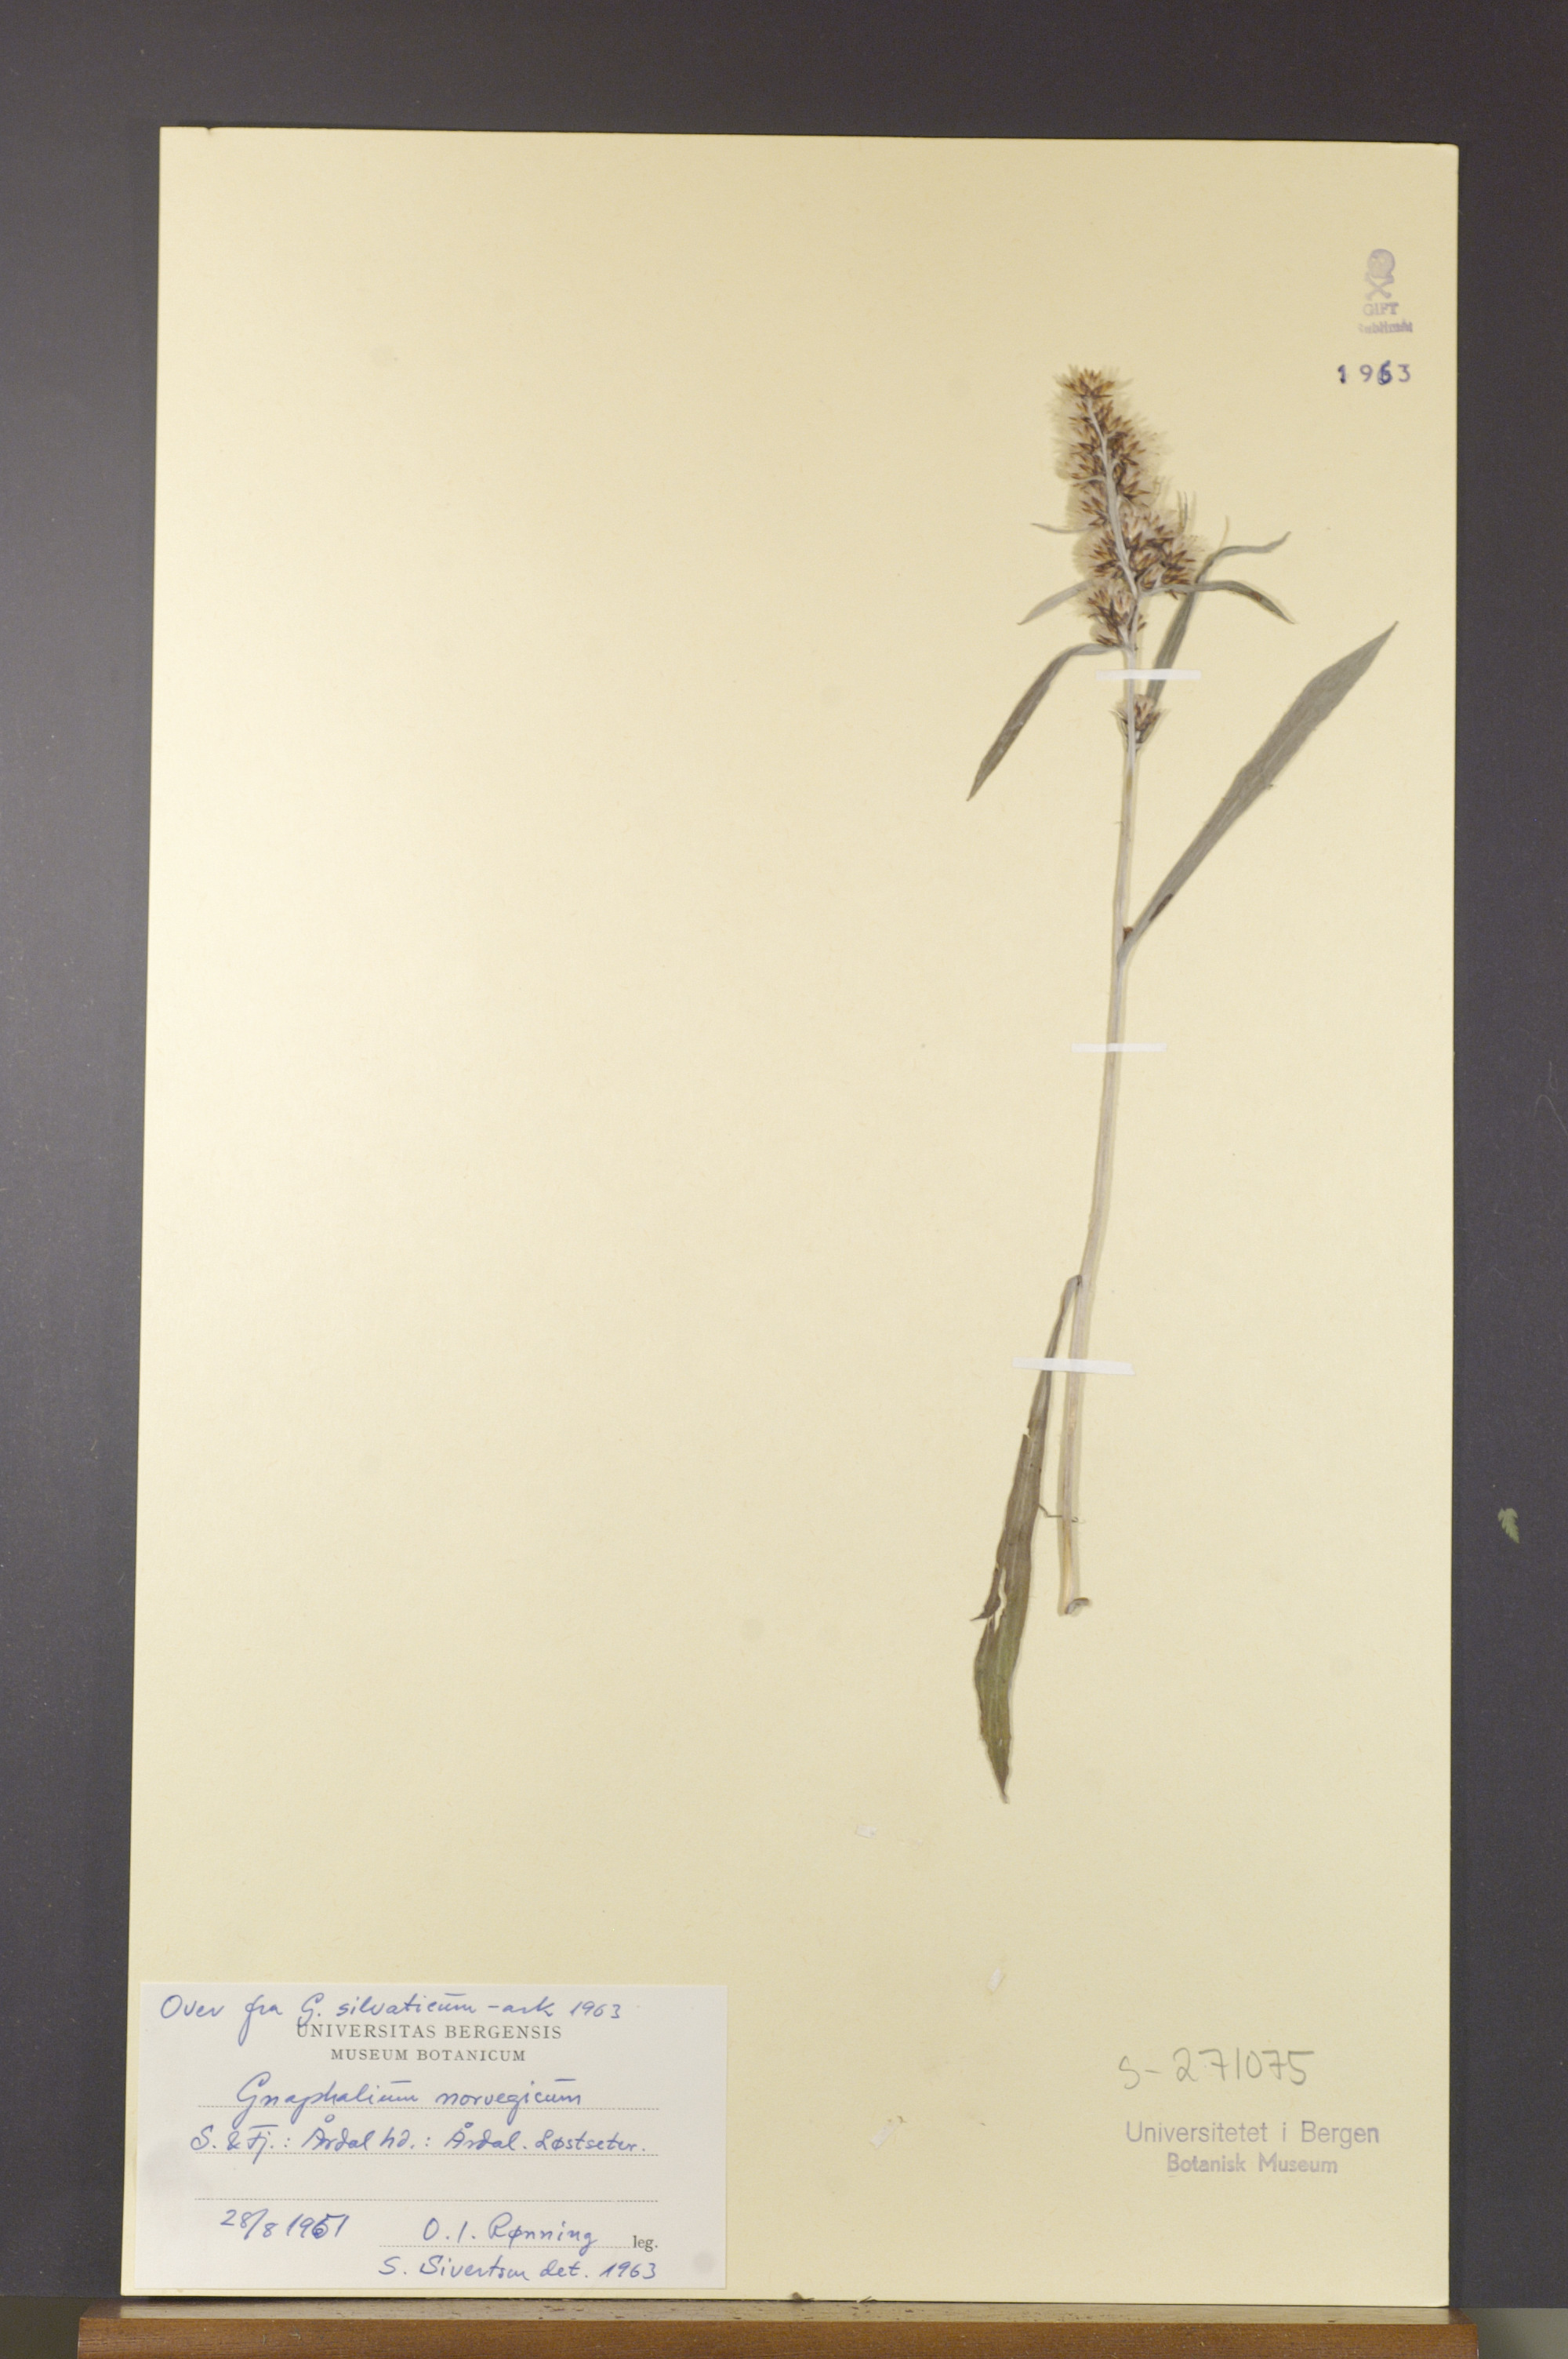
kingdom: Plantae
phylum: Tracheophyta
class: Magnoliopsida
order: Asterales
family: Asteraceae
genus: Omalotheca
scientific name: Omalotheca norvegica
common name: Norwegian arctic-cudweed
